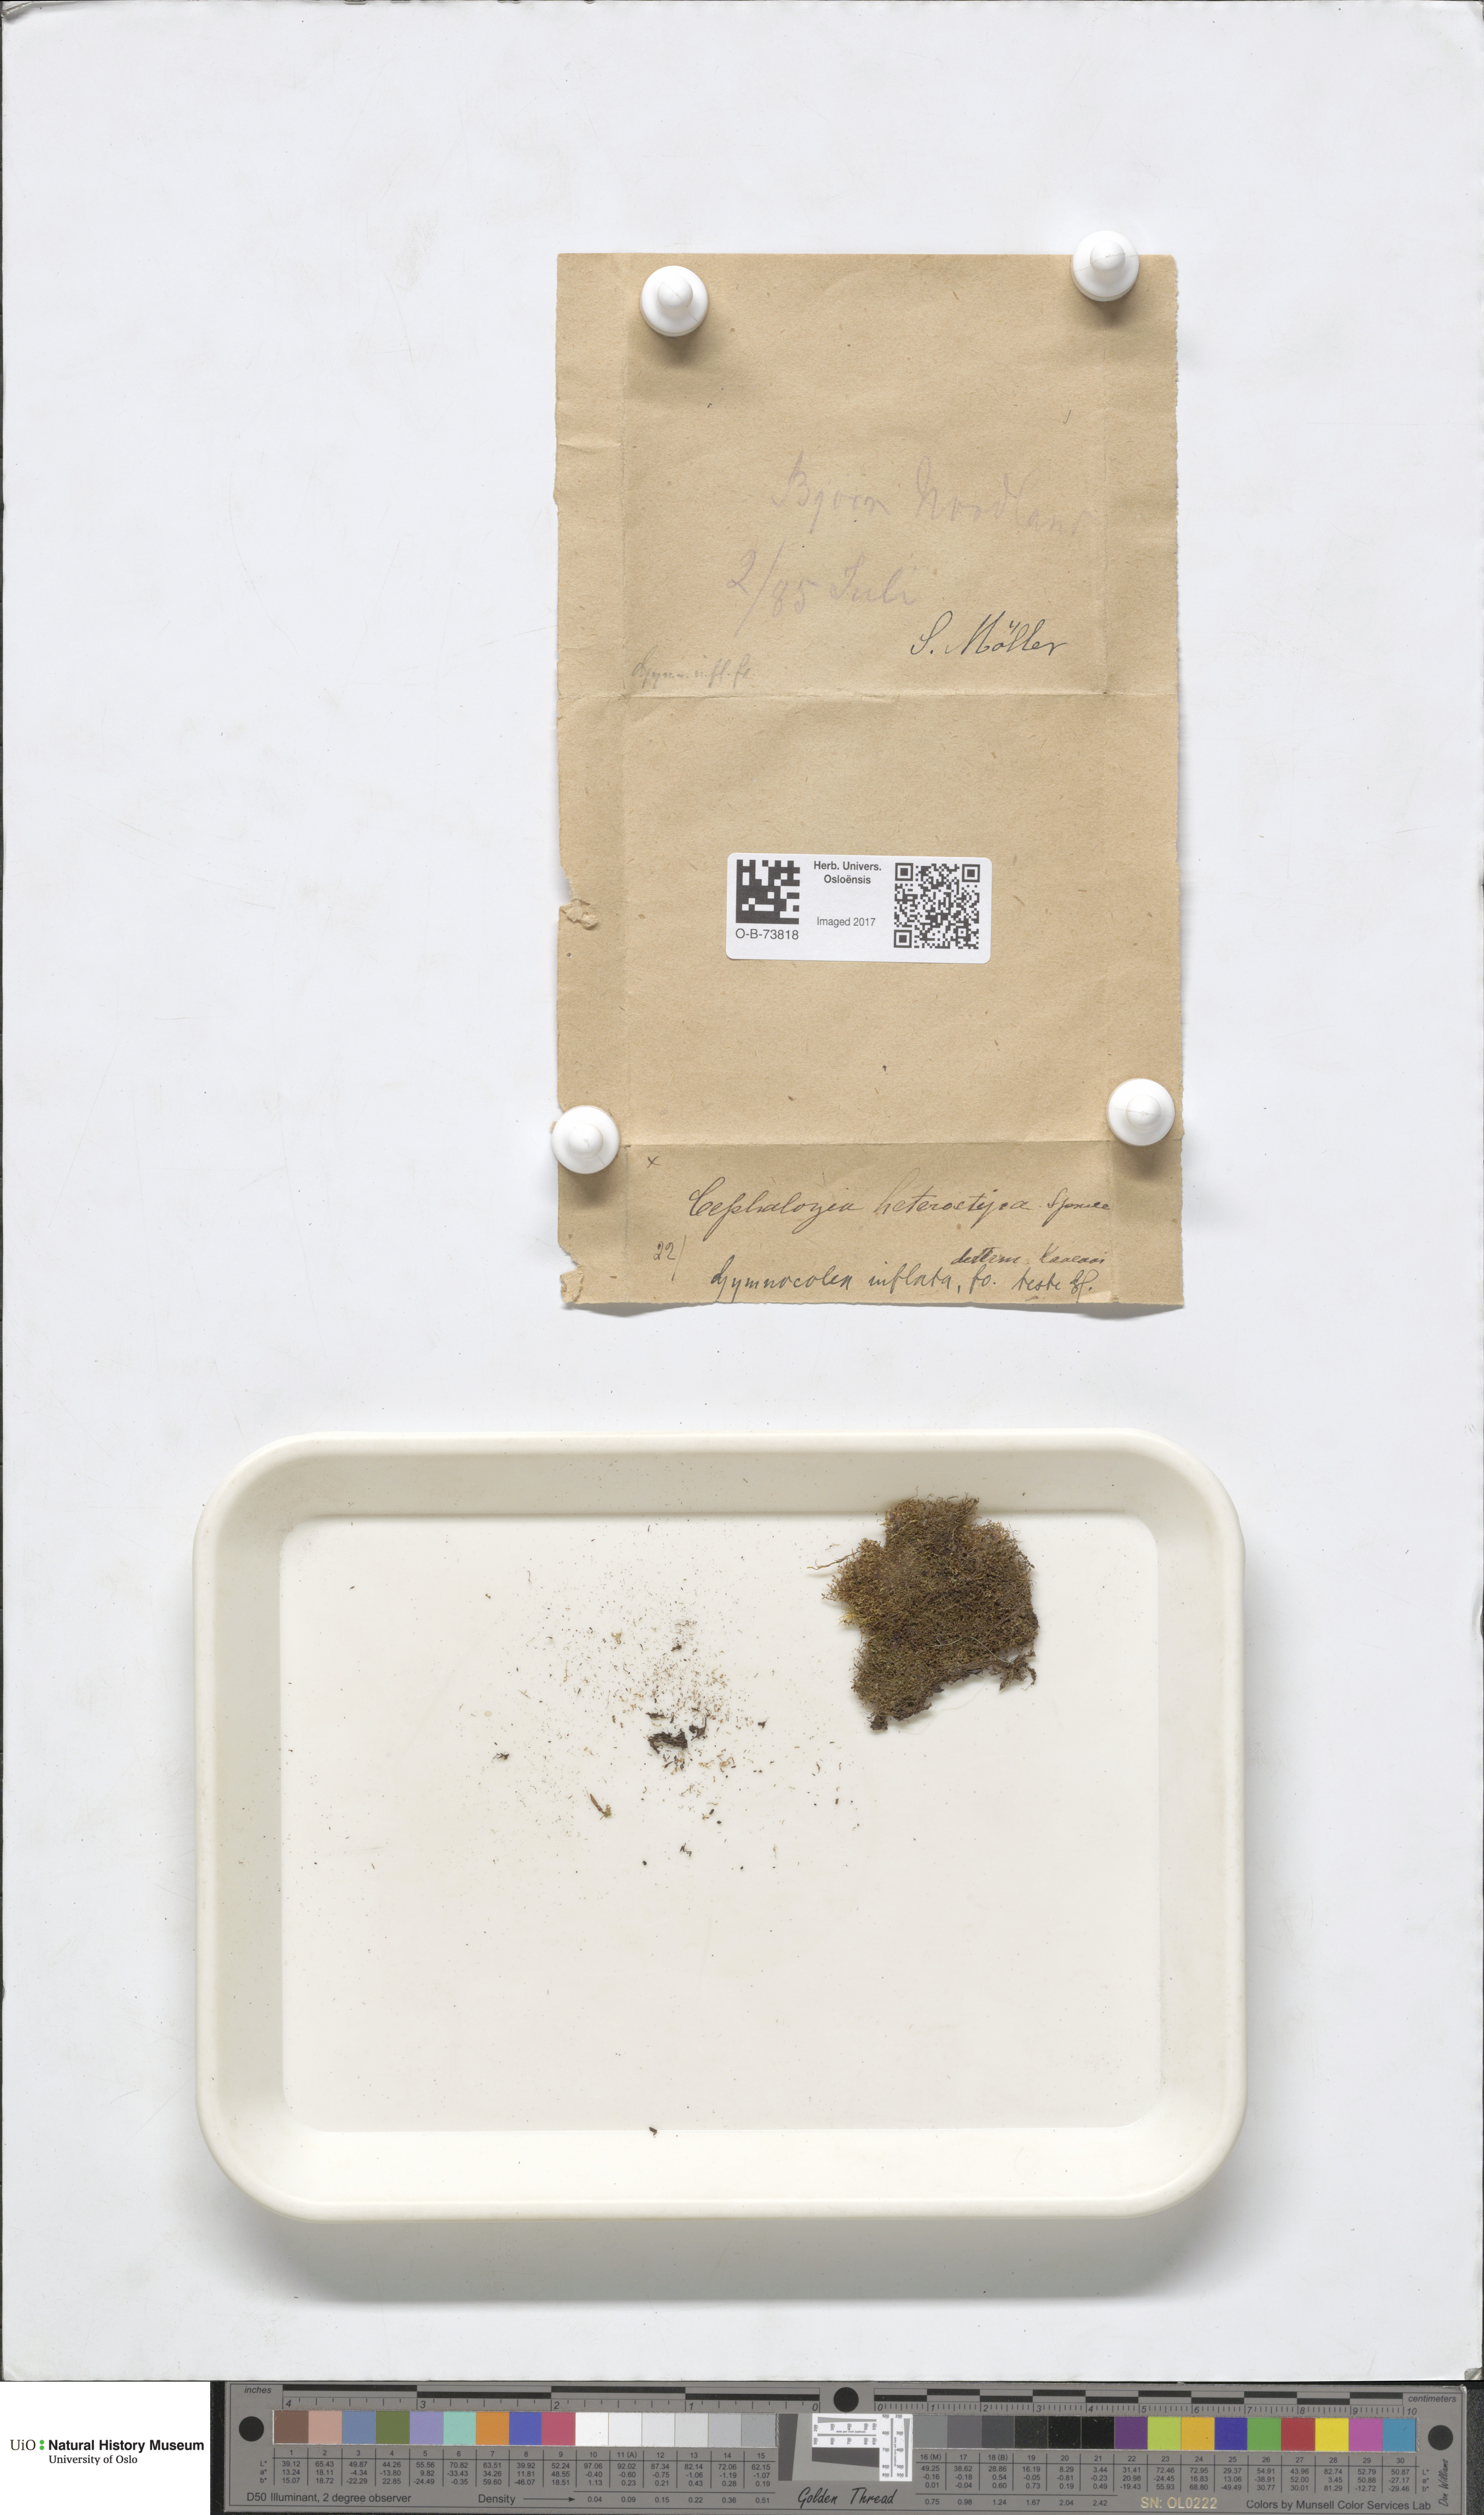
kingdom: Plantae
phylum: Marchantiophyta
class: Jungermanniopsida
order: Jungermanniales
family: Anastrophyllaceae
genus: Gymnocolea
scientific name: Gymnocolea inflata
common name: Inflated notchwort
